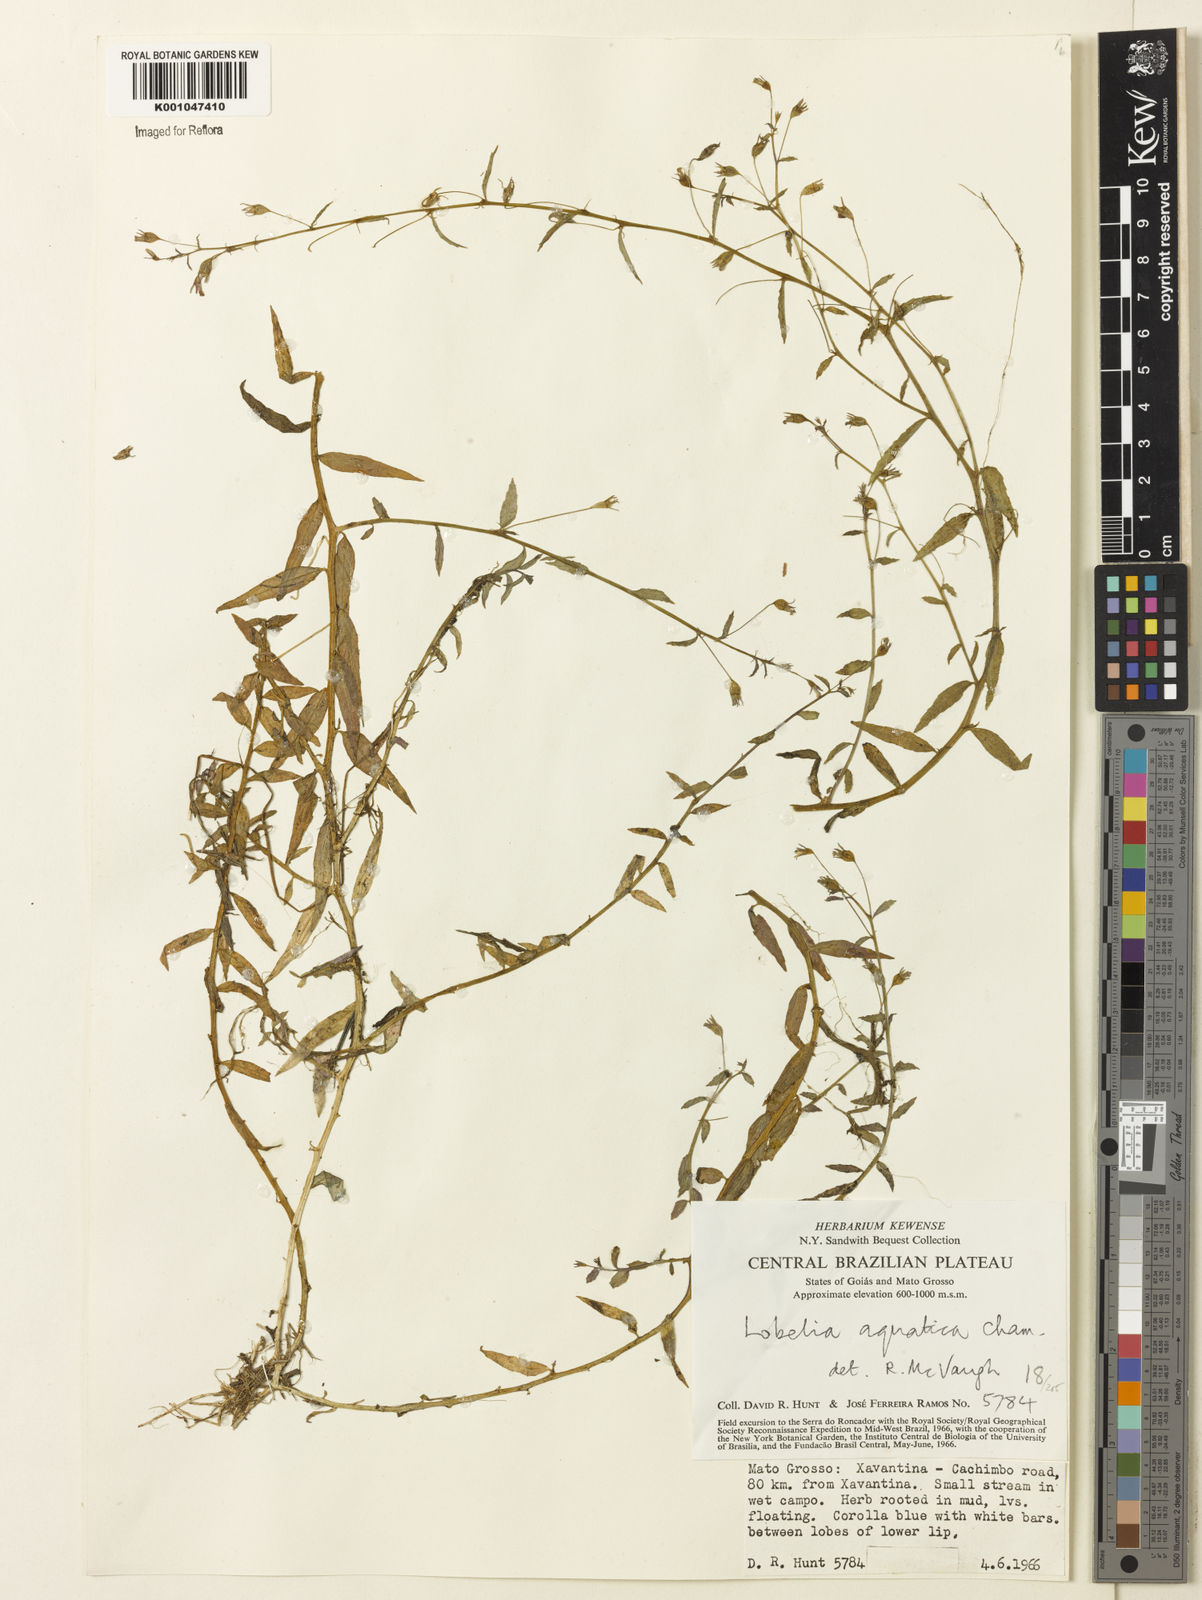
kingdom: Plantae
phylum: Tracheophyta
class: Magnoliopsida
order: Asterales
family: Campanulaceae
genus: Lobelia
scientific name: Lobelia aquatica
